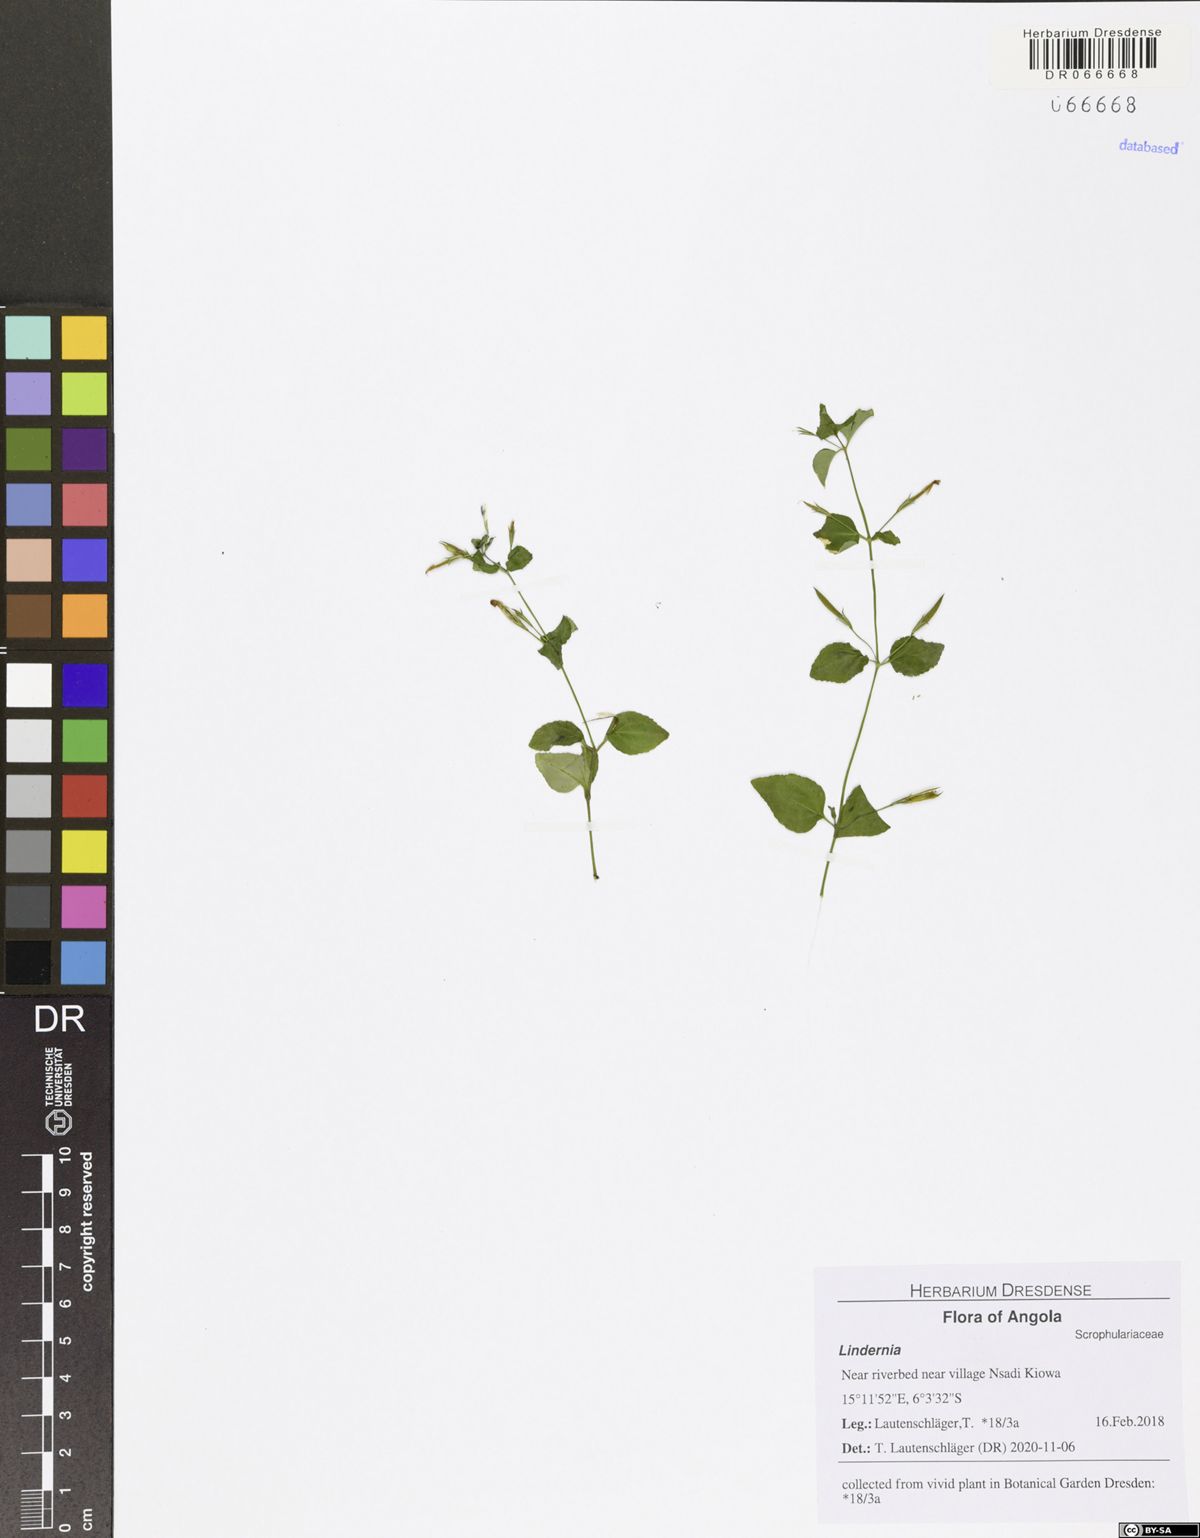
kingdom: Plantae
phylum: Tracheophyta
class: Magnoliopsida
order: Lamiales
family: Linderniaceae
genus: Lindernia
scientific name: Lindernia
